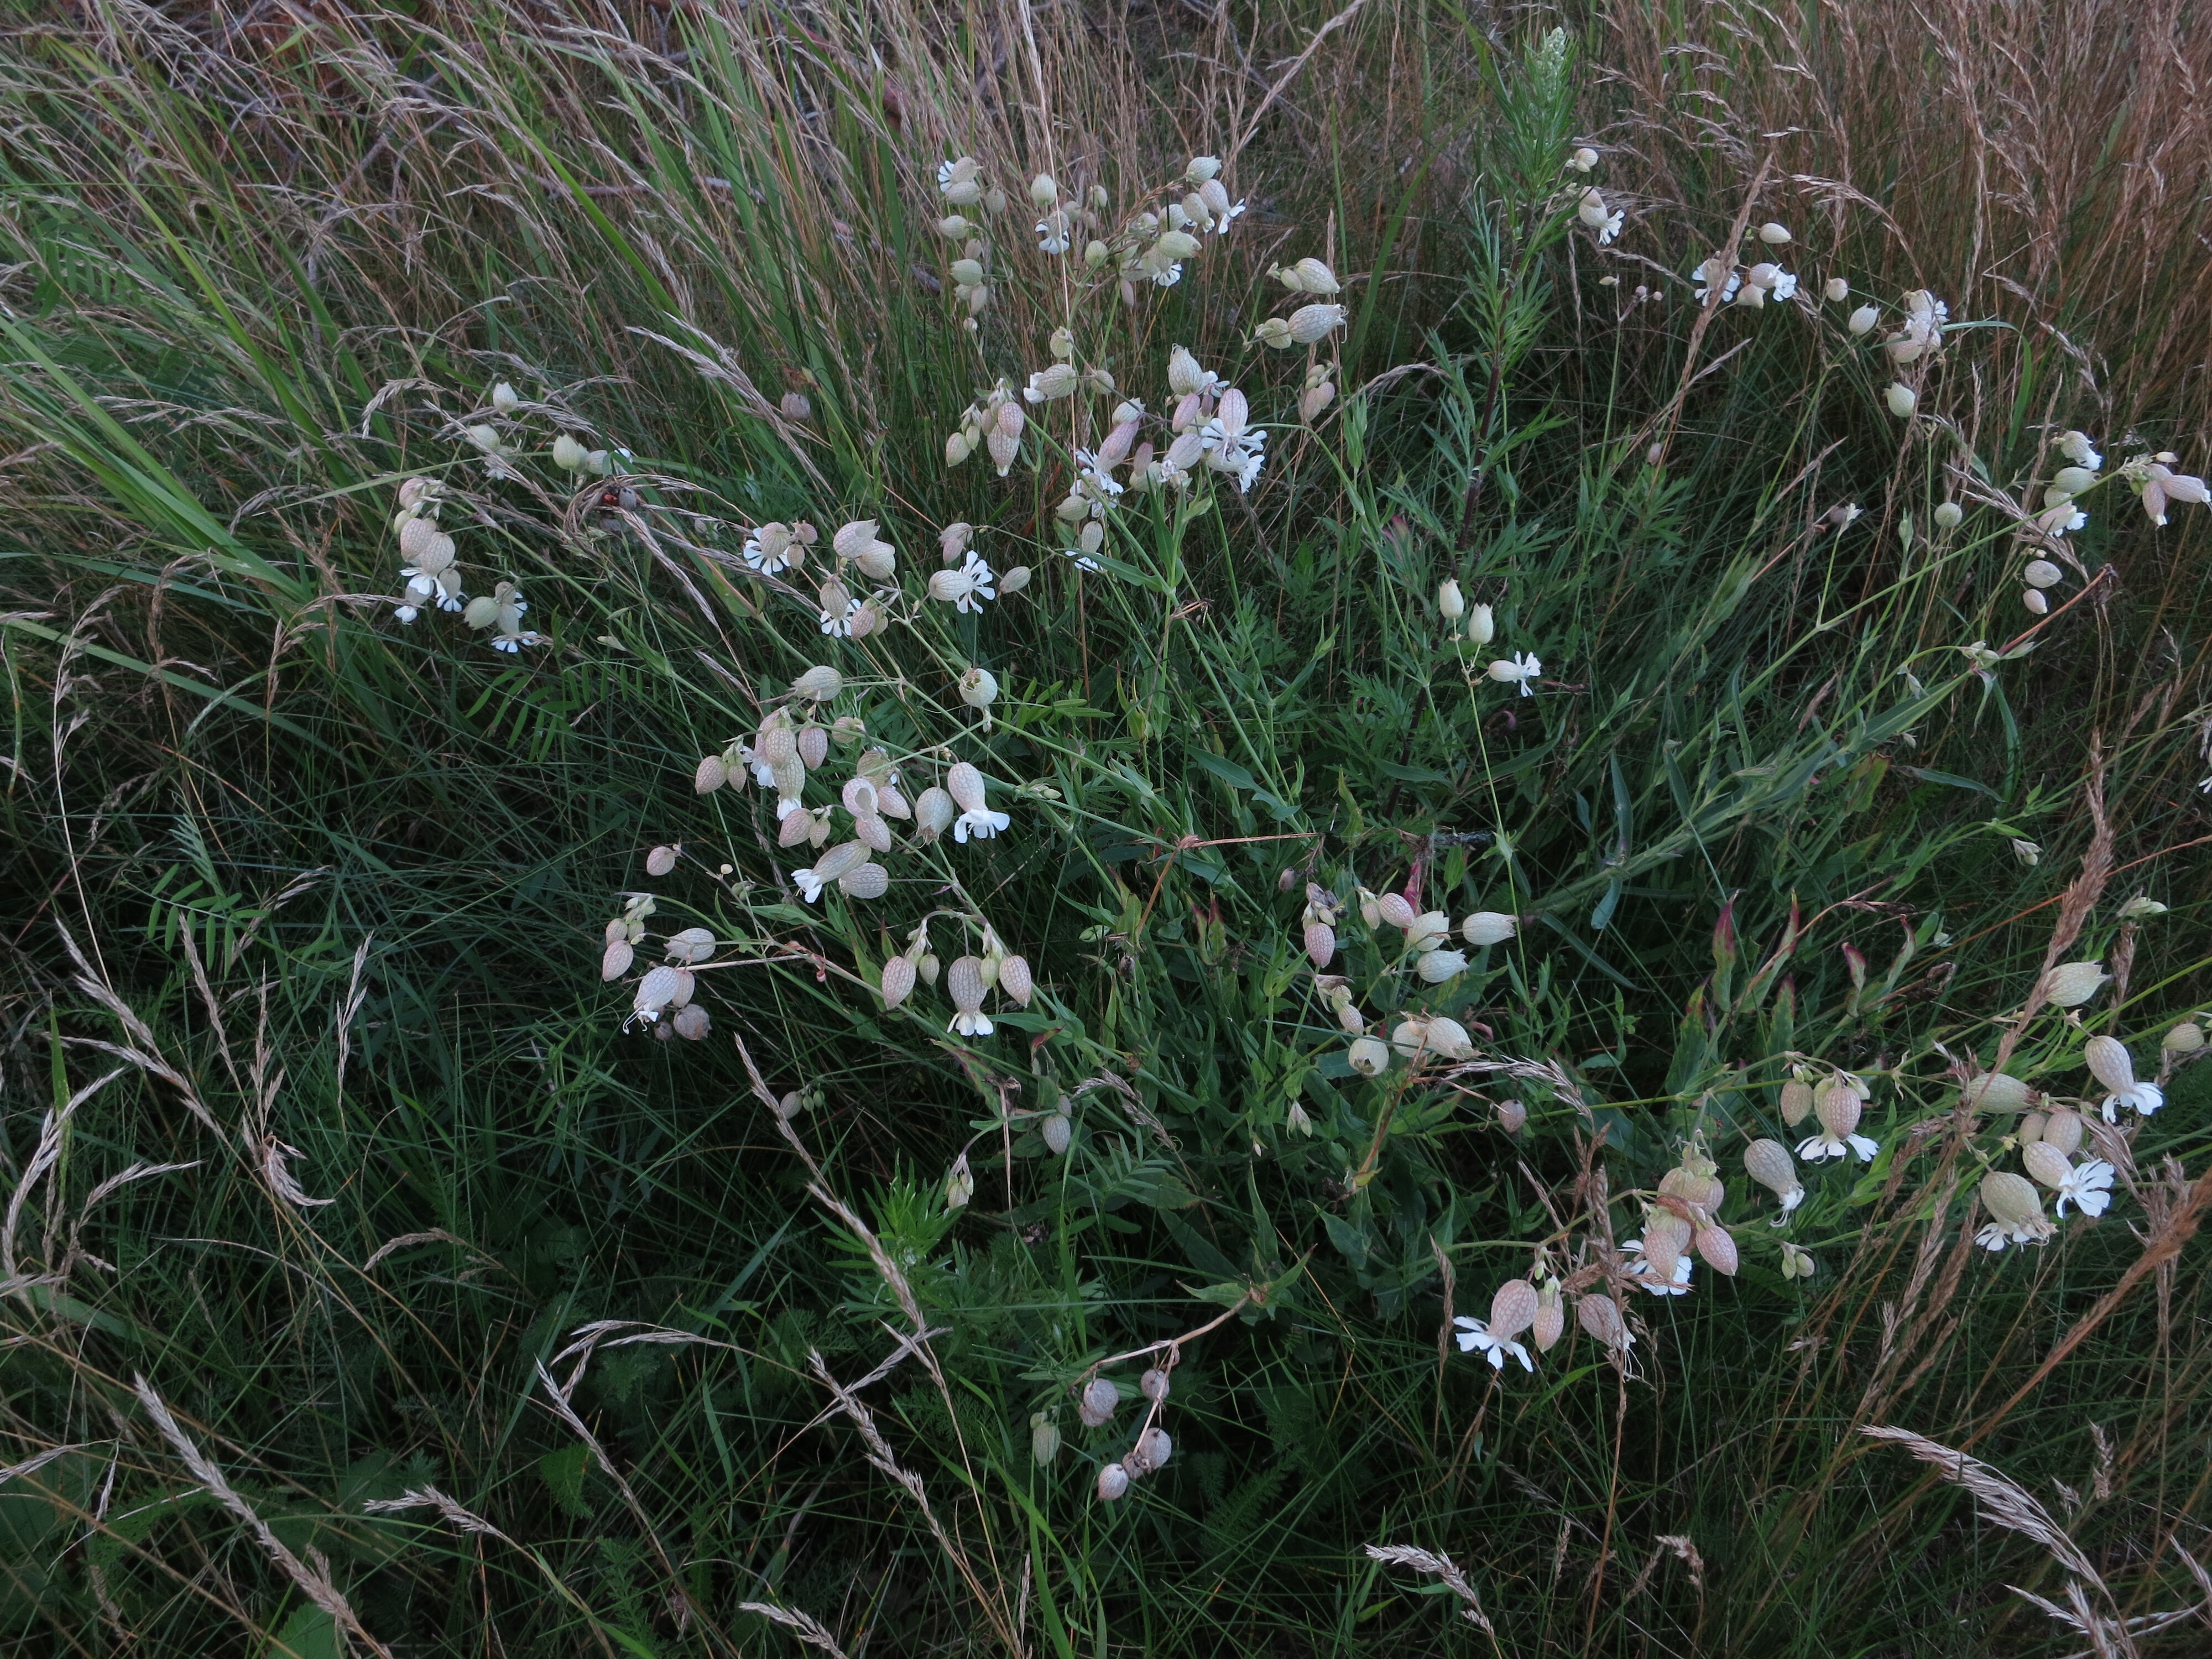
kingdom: Plantae
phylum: Tracheophyta
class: Magnoliopsida
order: Caryophyllales
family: Caryophyllaceae
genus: Silene
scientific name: Silene vulgaris
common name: Bladder campion
